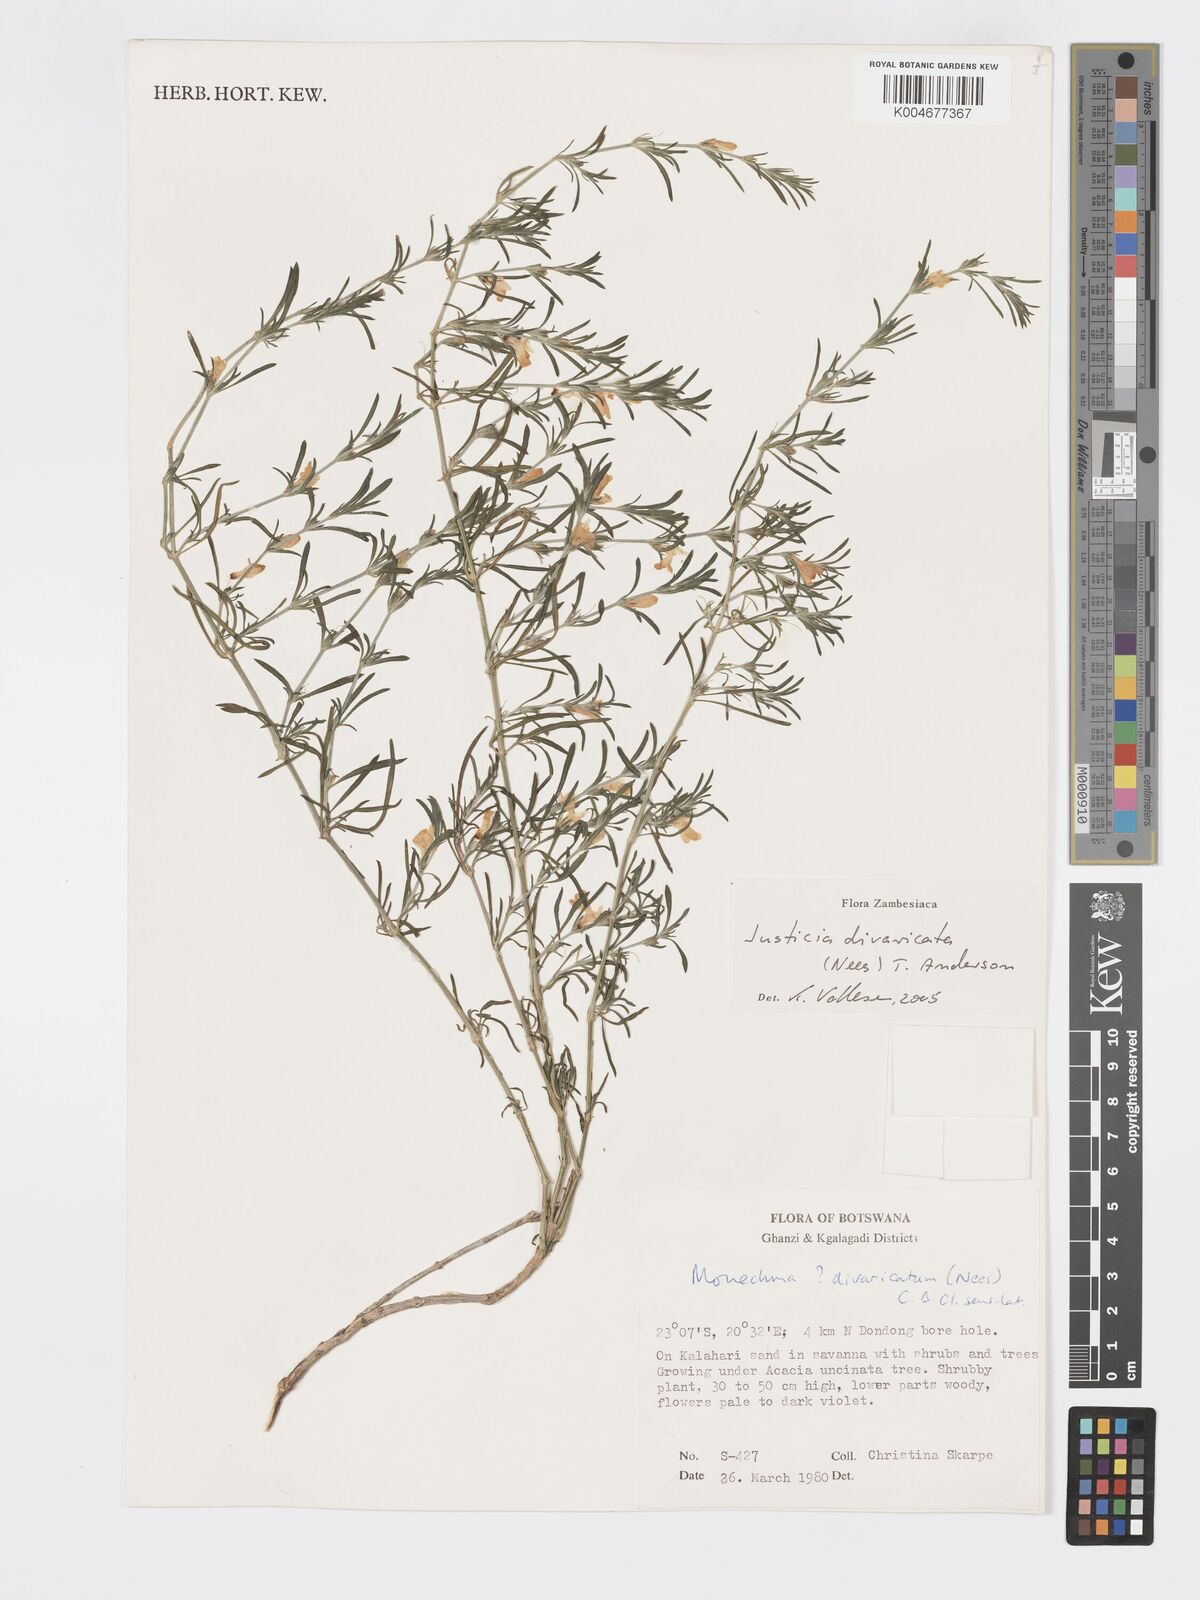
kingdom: Plantae
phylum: Tracheophyta
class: Magnoliopsida
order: Lamiales
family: Acanthaceae
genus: Pogonospermum
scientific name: Pogonospermum
